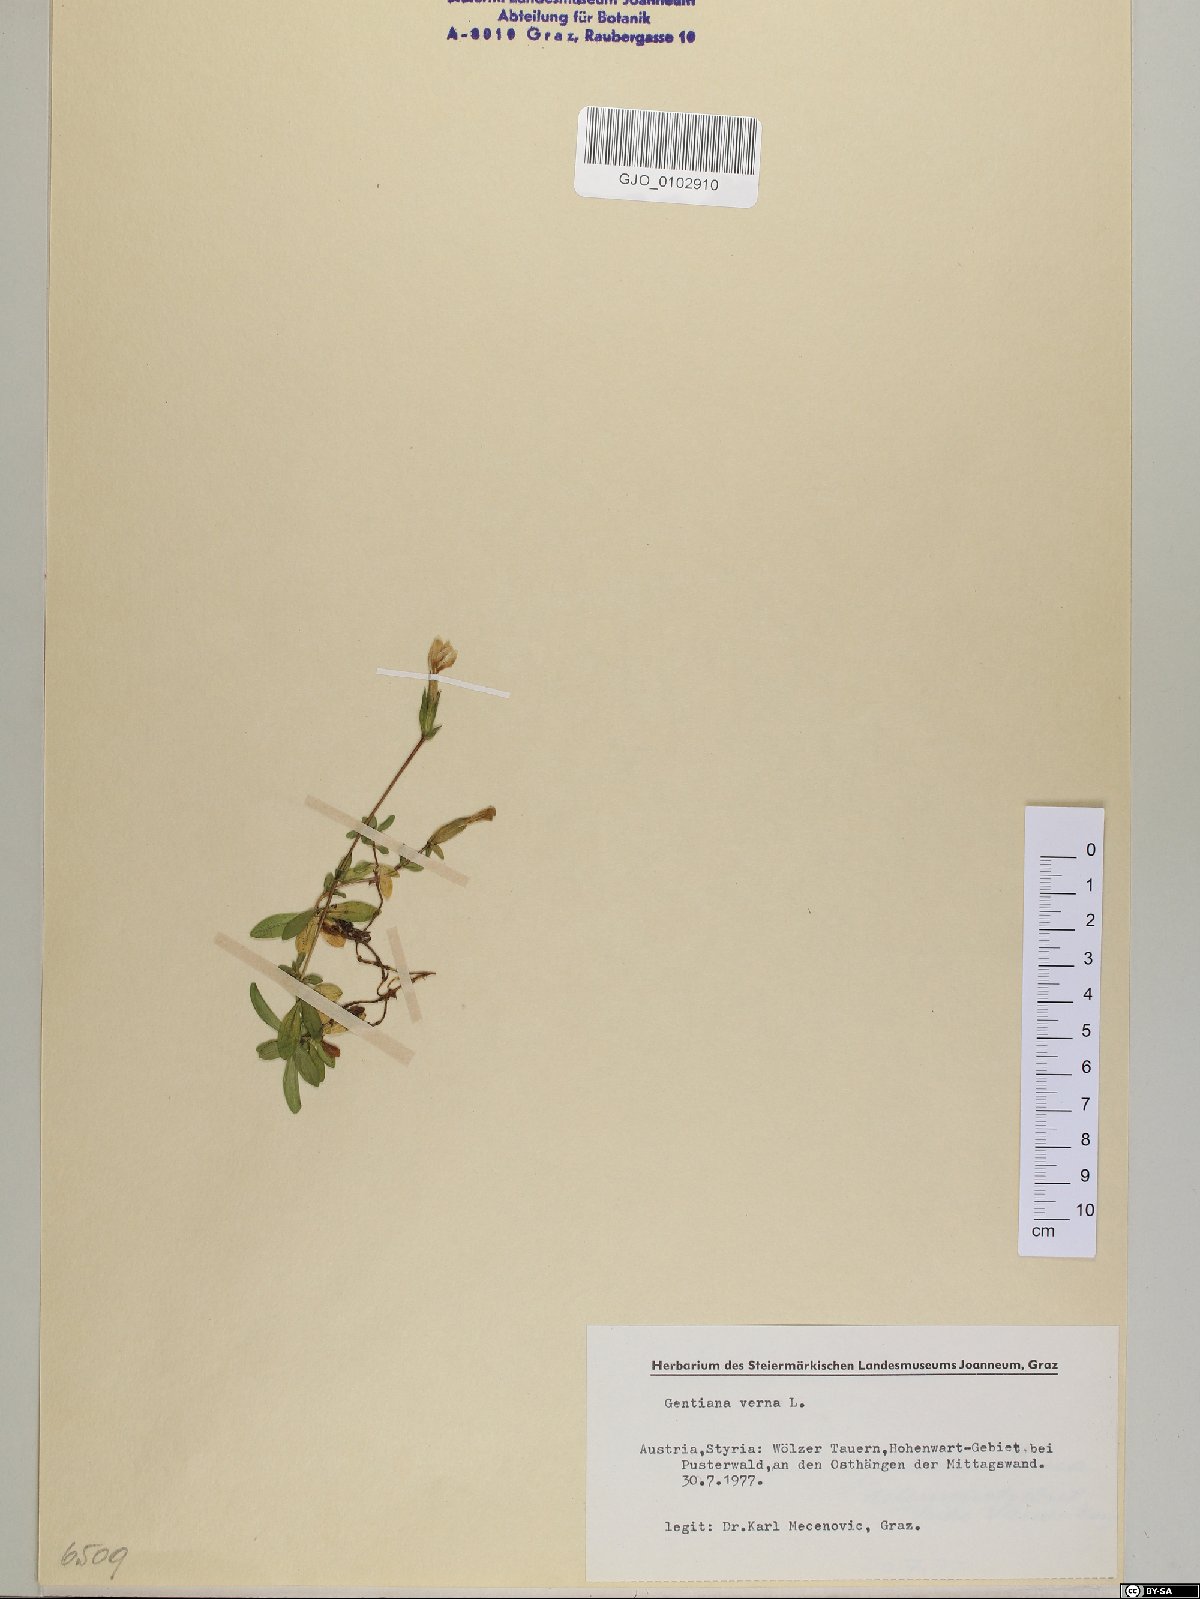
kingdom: Plantae
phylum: Tracheophyta
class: Magnoliopsida
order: Gentianales
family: Gentianaceae
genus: Gentiana
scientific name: Gentiana verna
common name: Spring gentian
